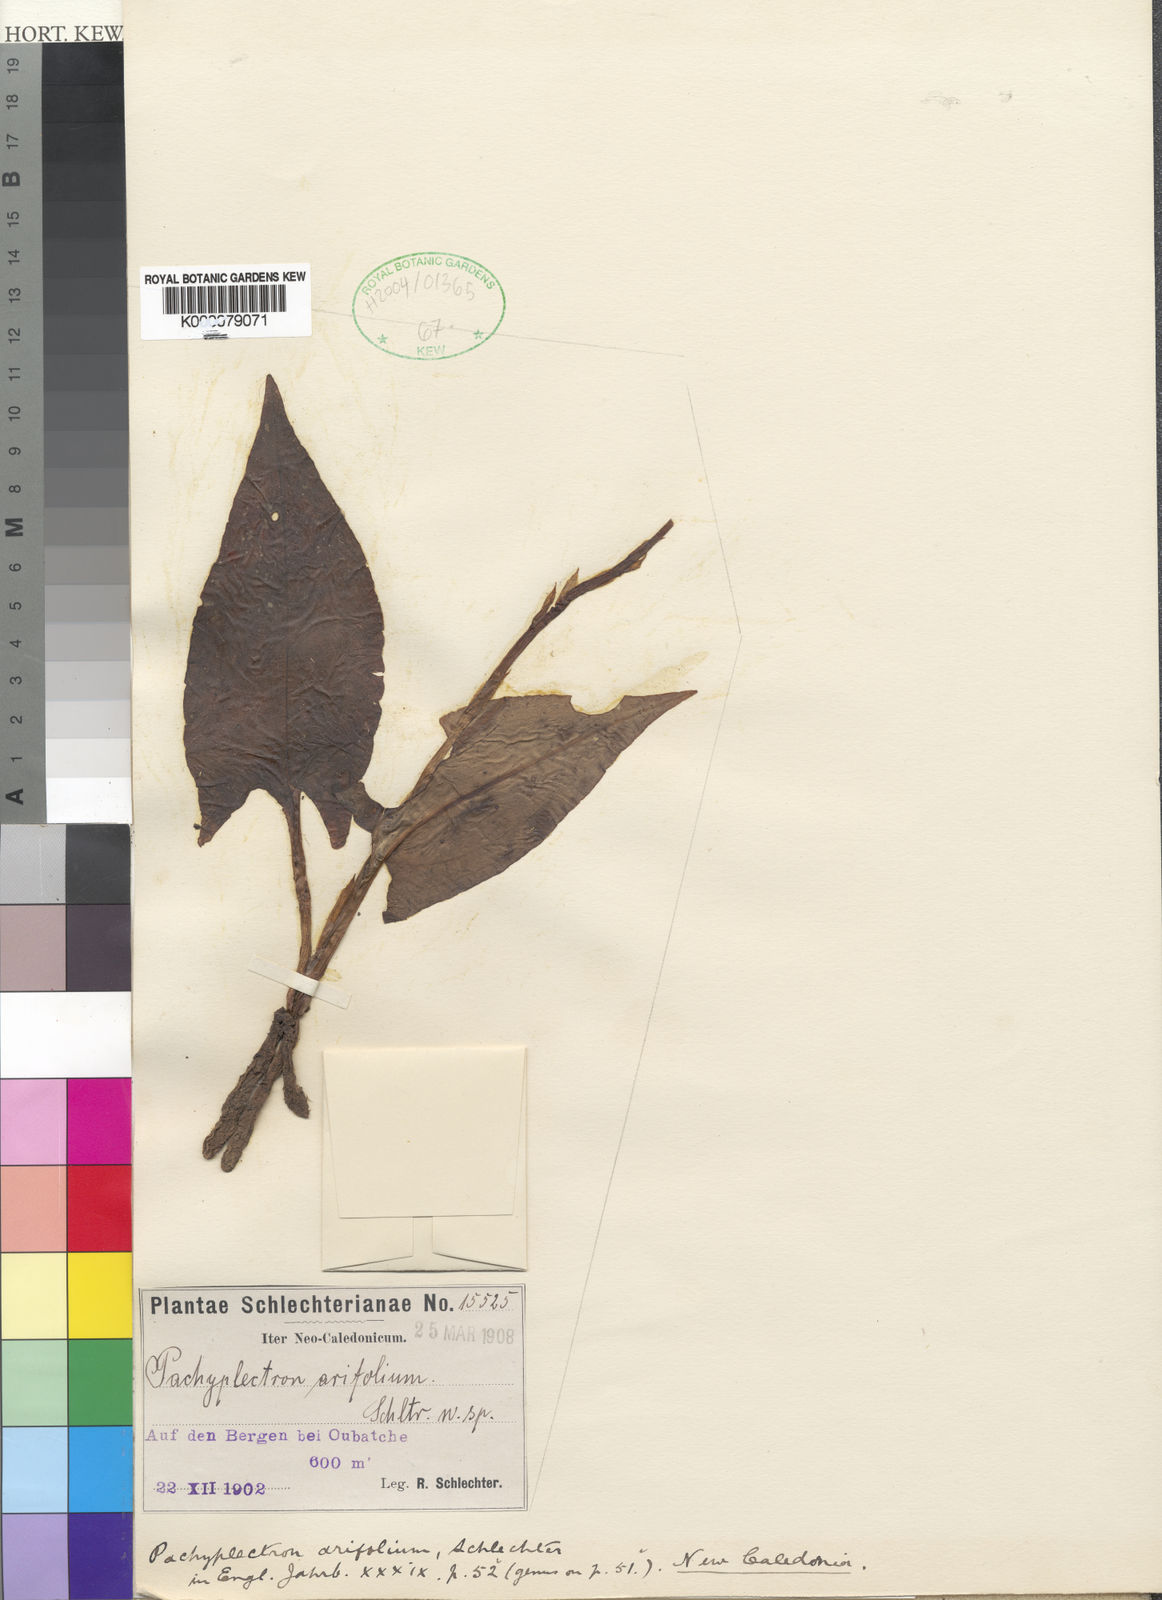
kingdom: Plantae
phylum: Tracheophyta
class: Liliopsida
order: Asparagales
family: Orchidaceae
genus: Pachyplectron
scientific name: Pachyplectron arifolium
